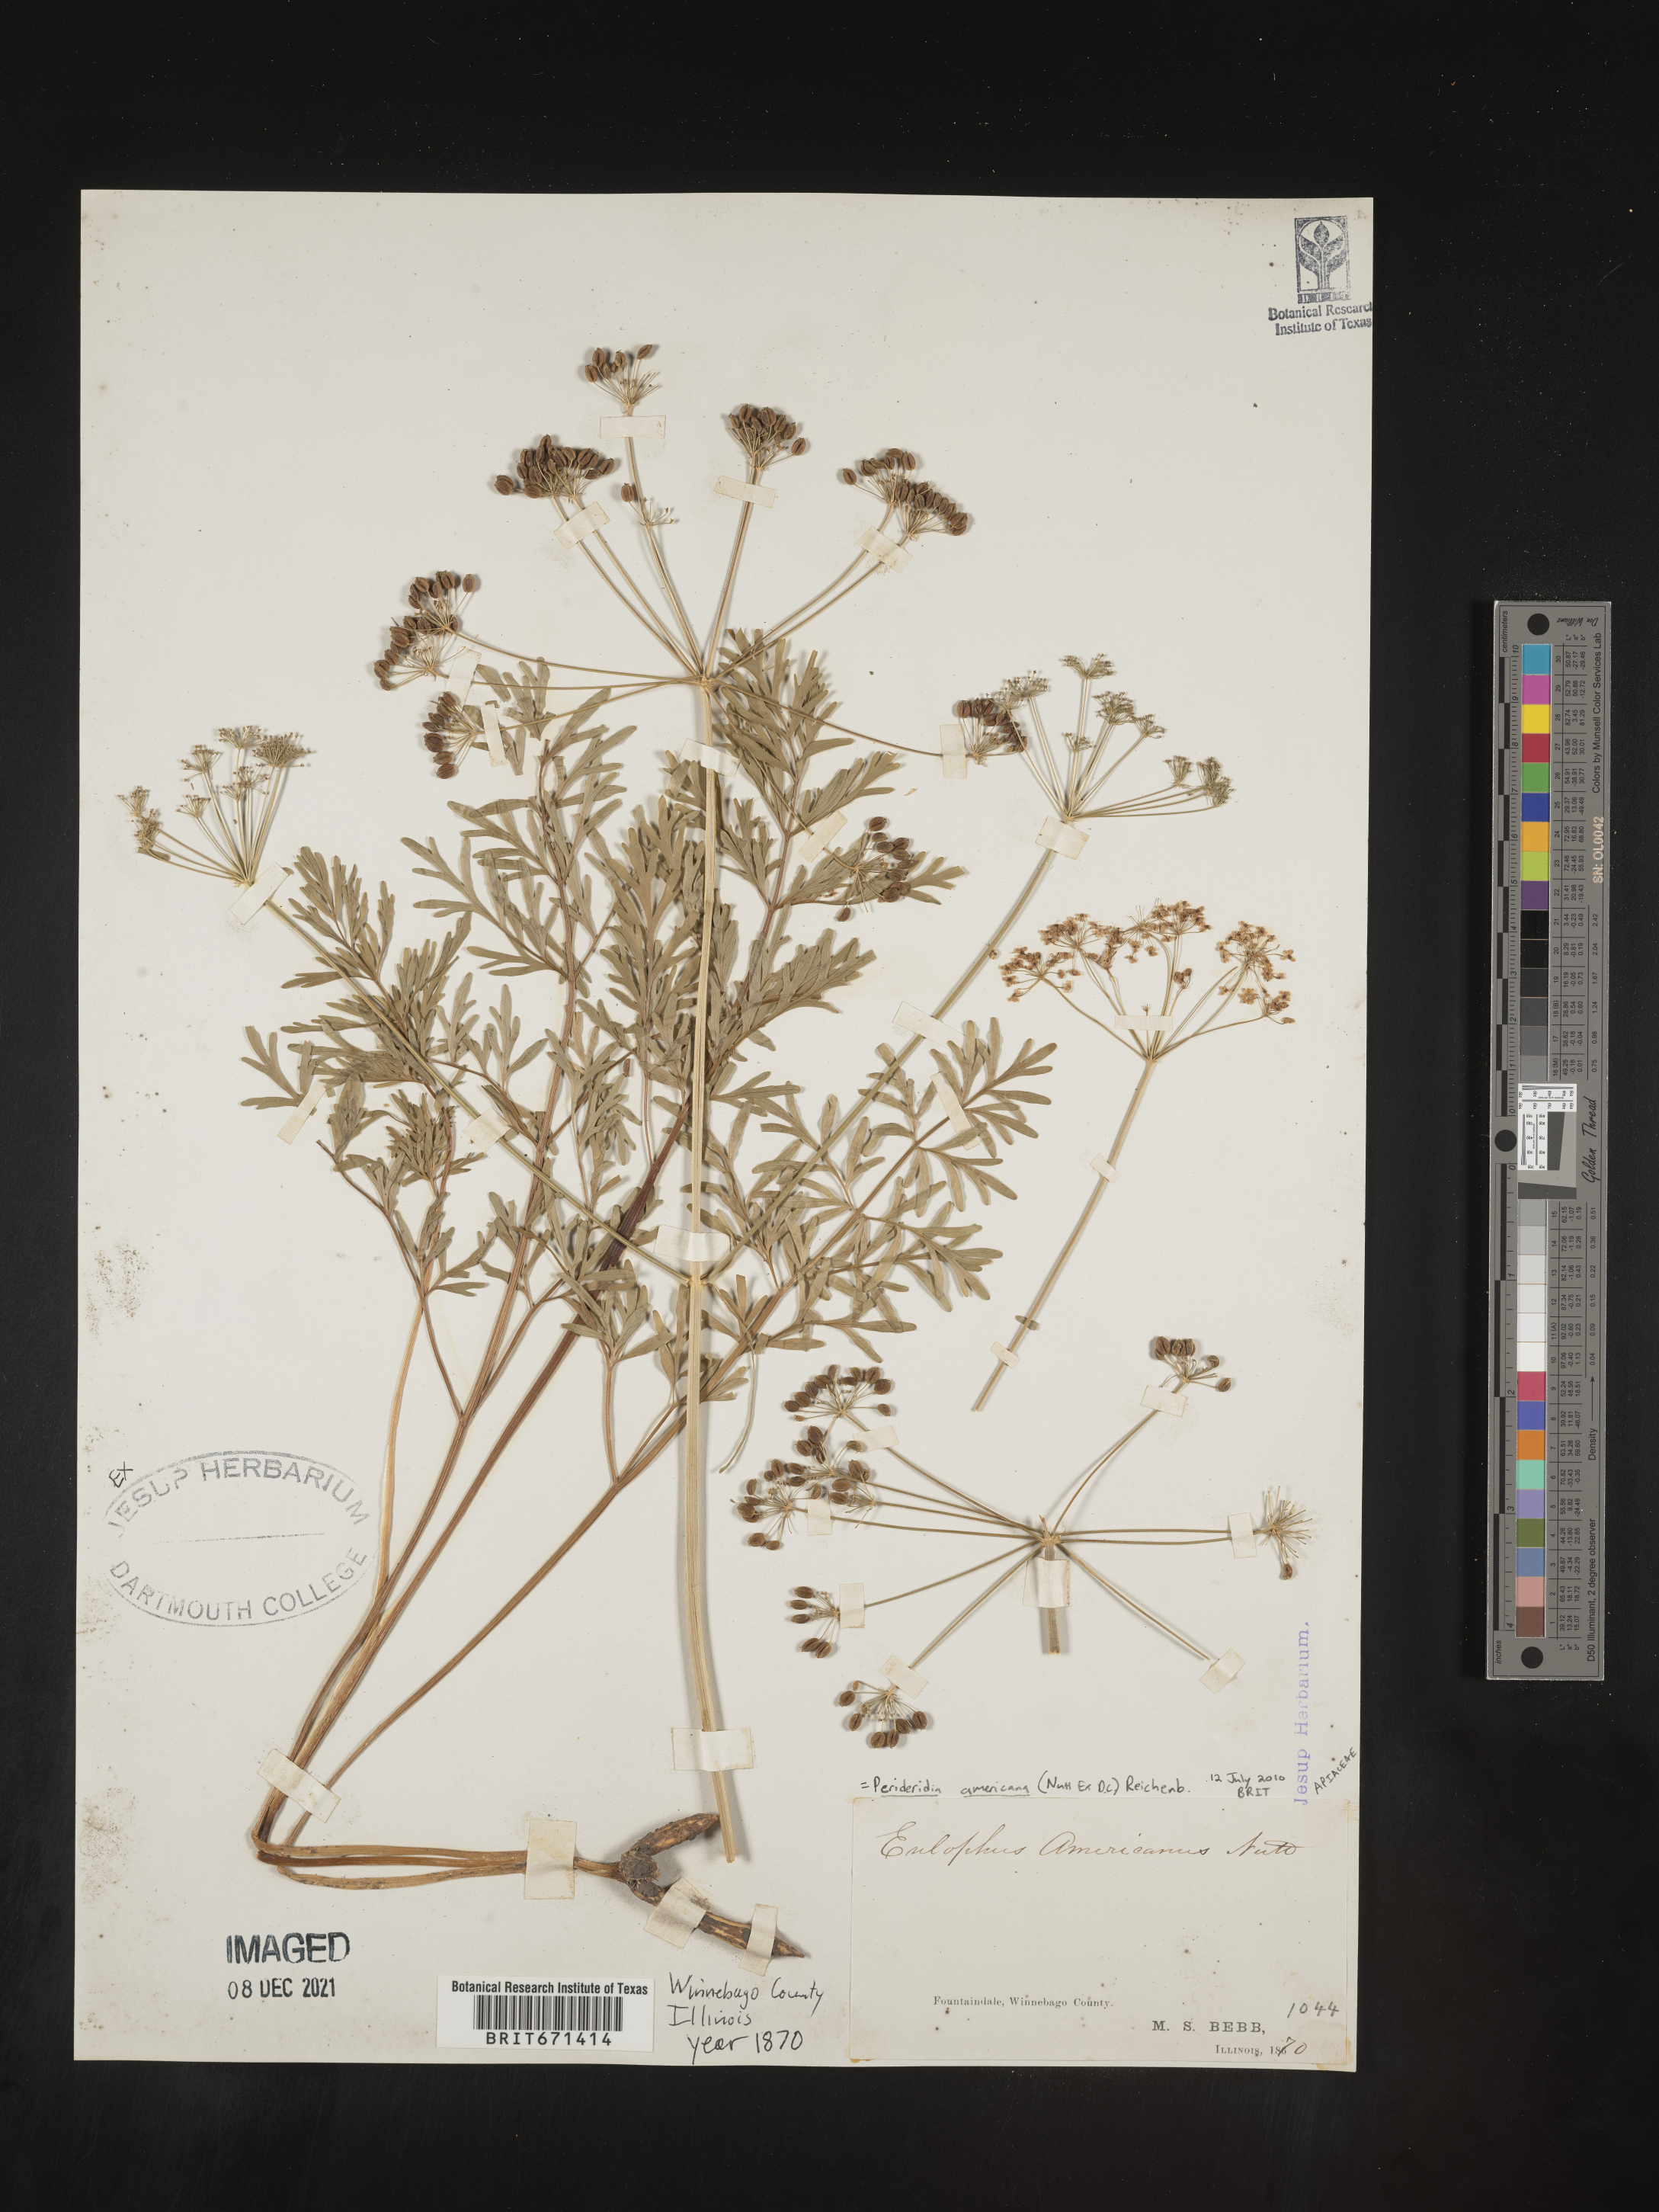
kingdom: Plantae
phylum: Tracheophyta
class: Magnoliopsida
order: Apiales
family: Apiaceae
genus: Perideridia
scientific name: Perideridia americana
